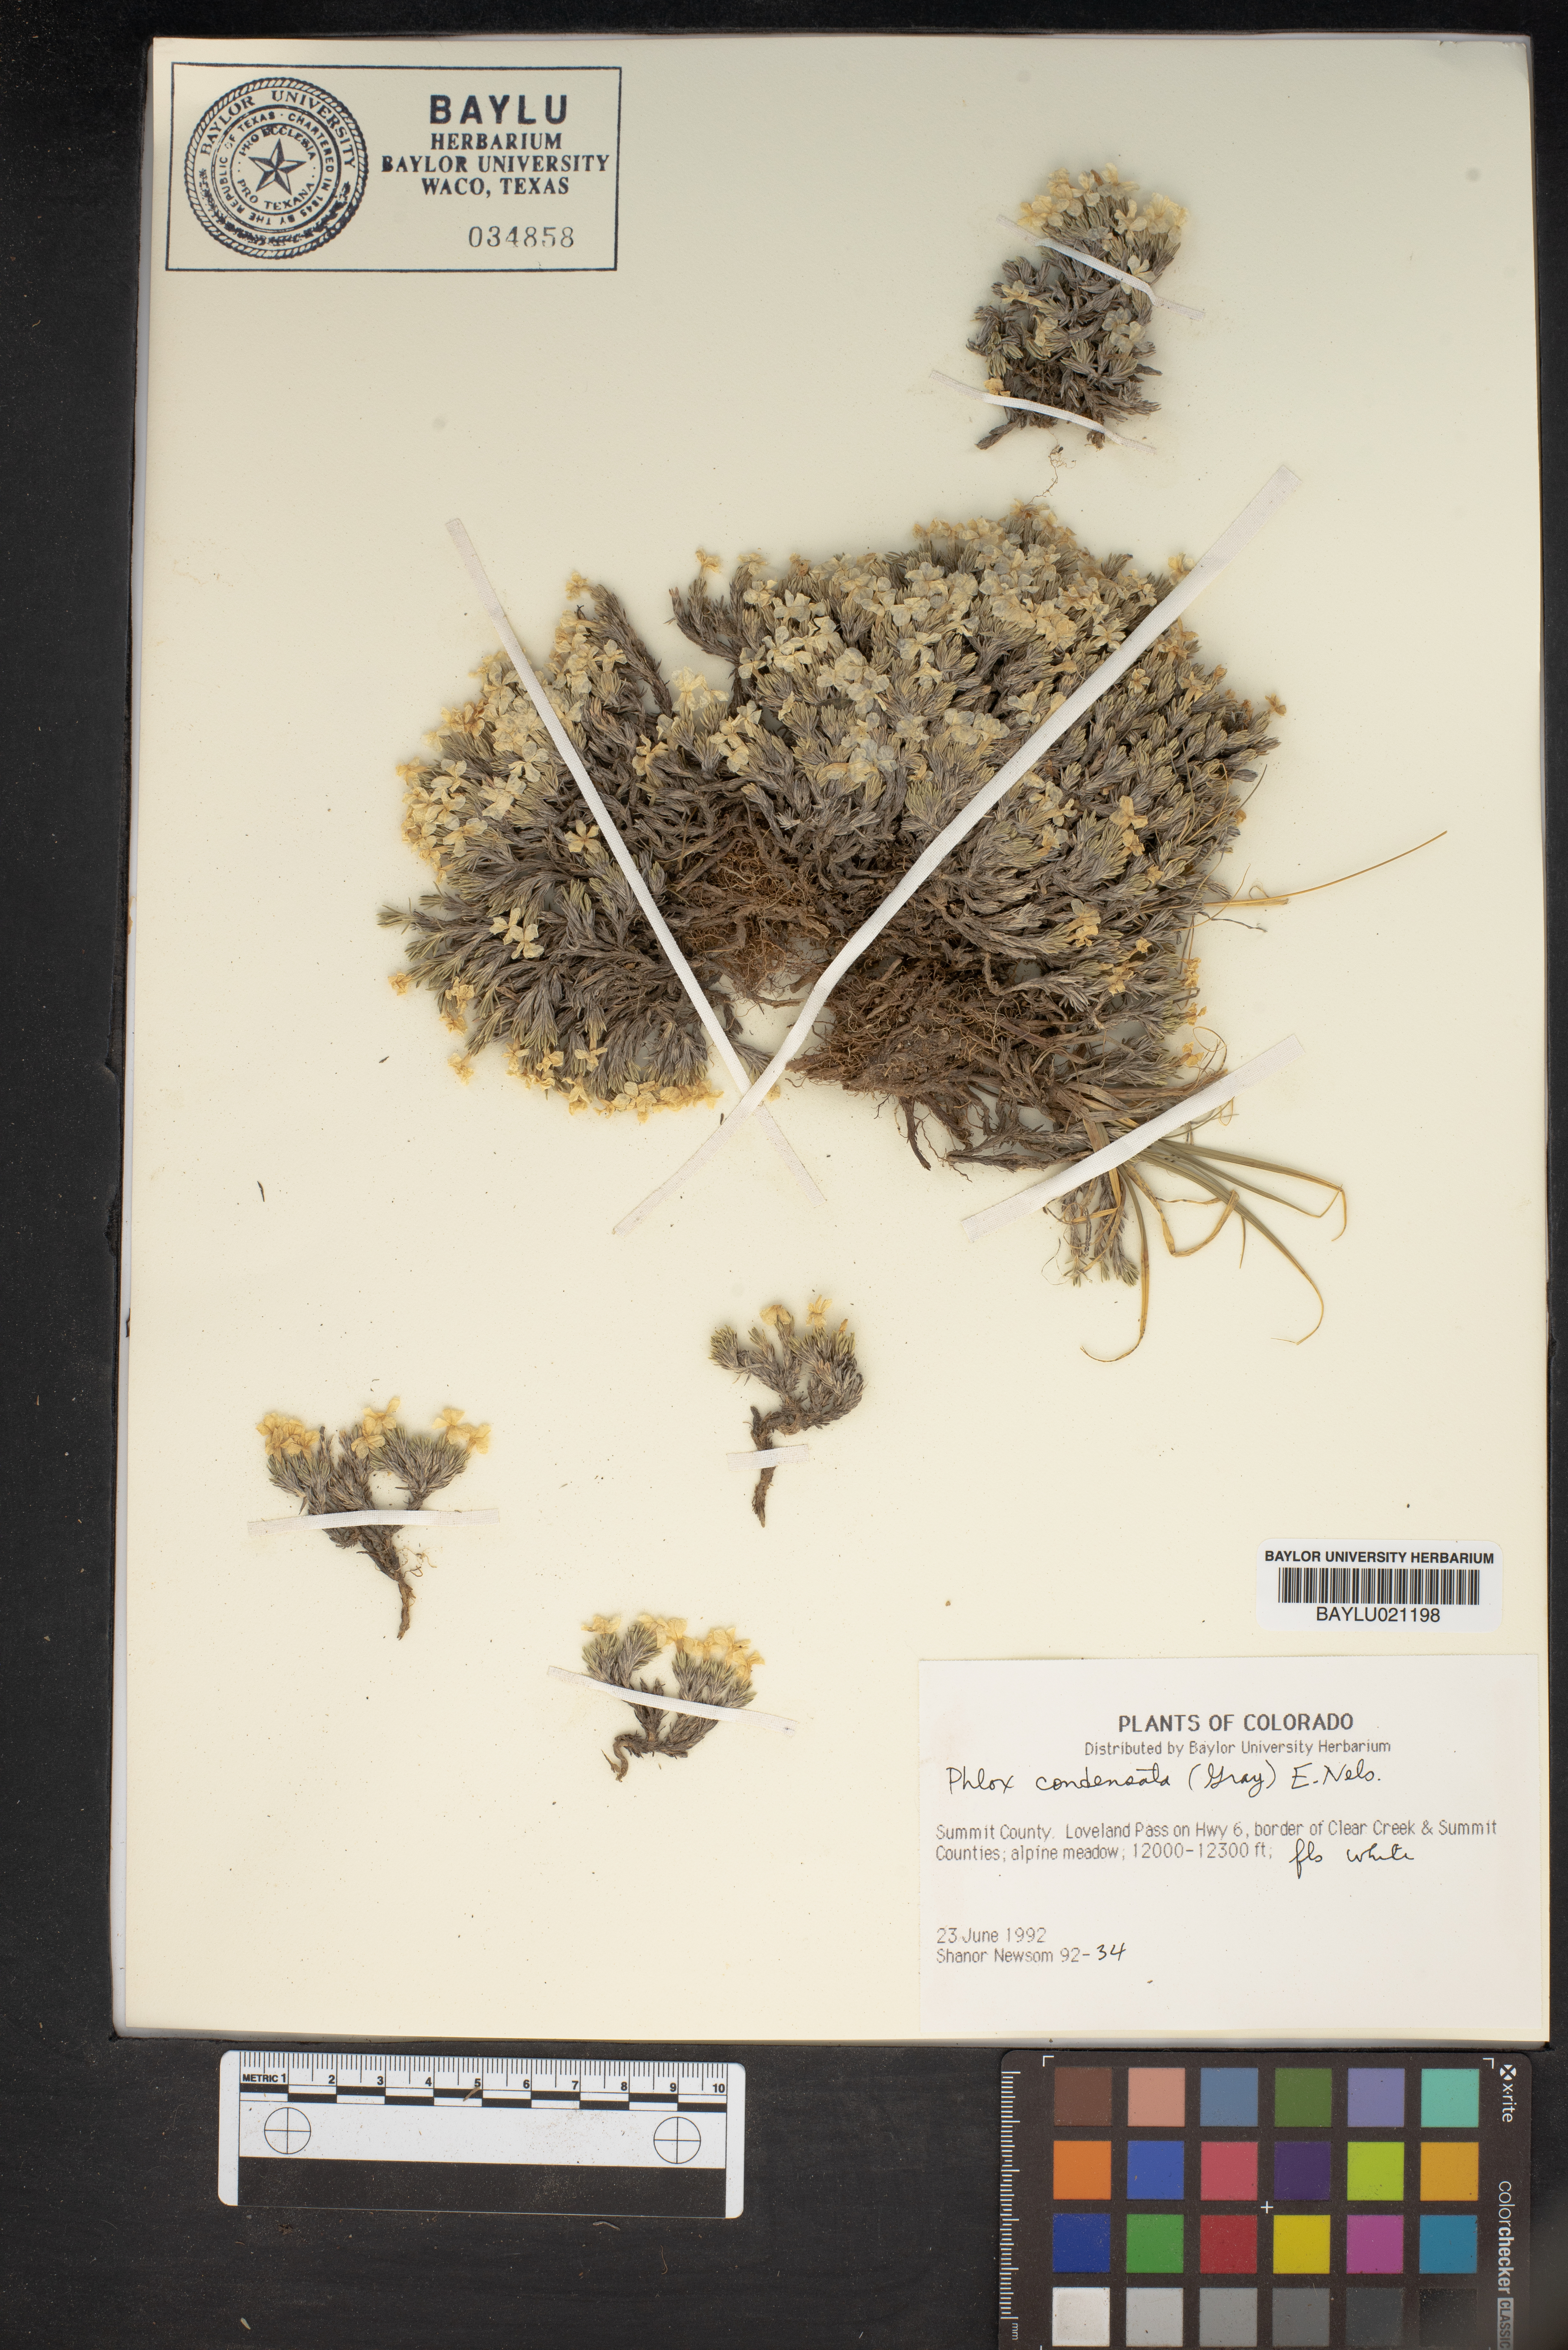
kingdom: Plantae
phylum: Tracheophyta
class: Magnoliopsida
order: Ericales
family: Polemoniaceae
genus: Phlox
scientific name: Phlox condensata
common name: Compact phlox
